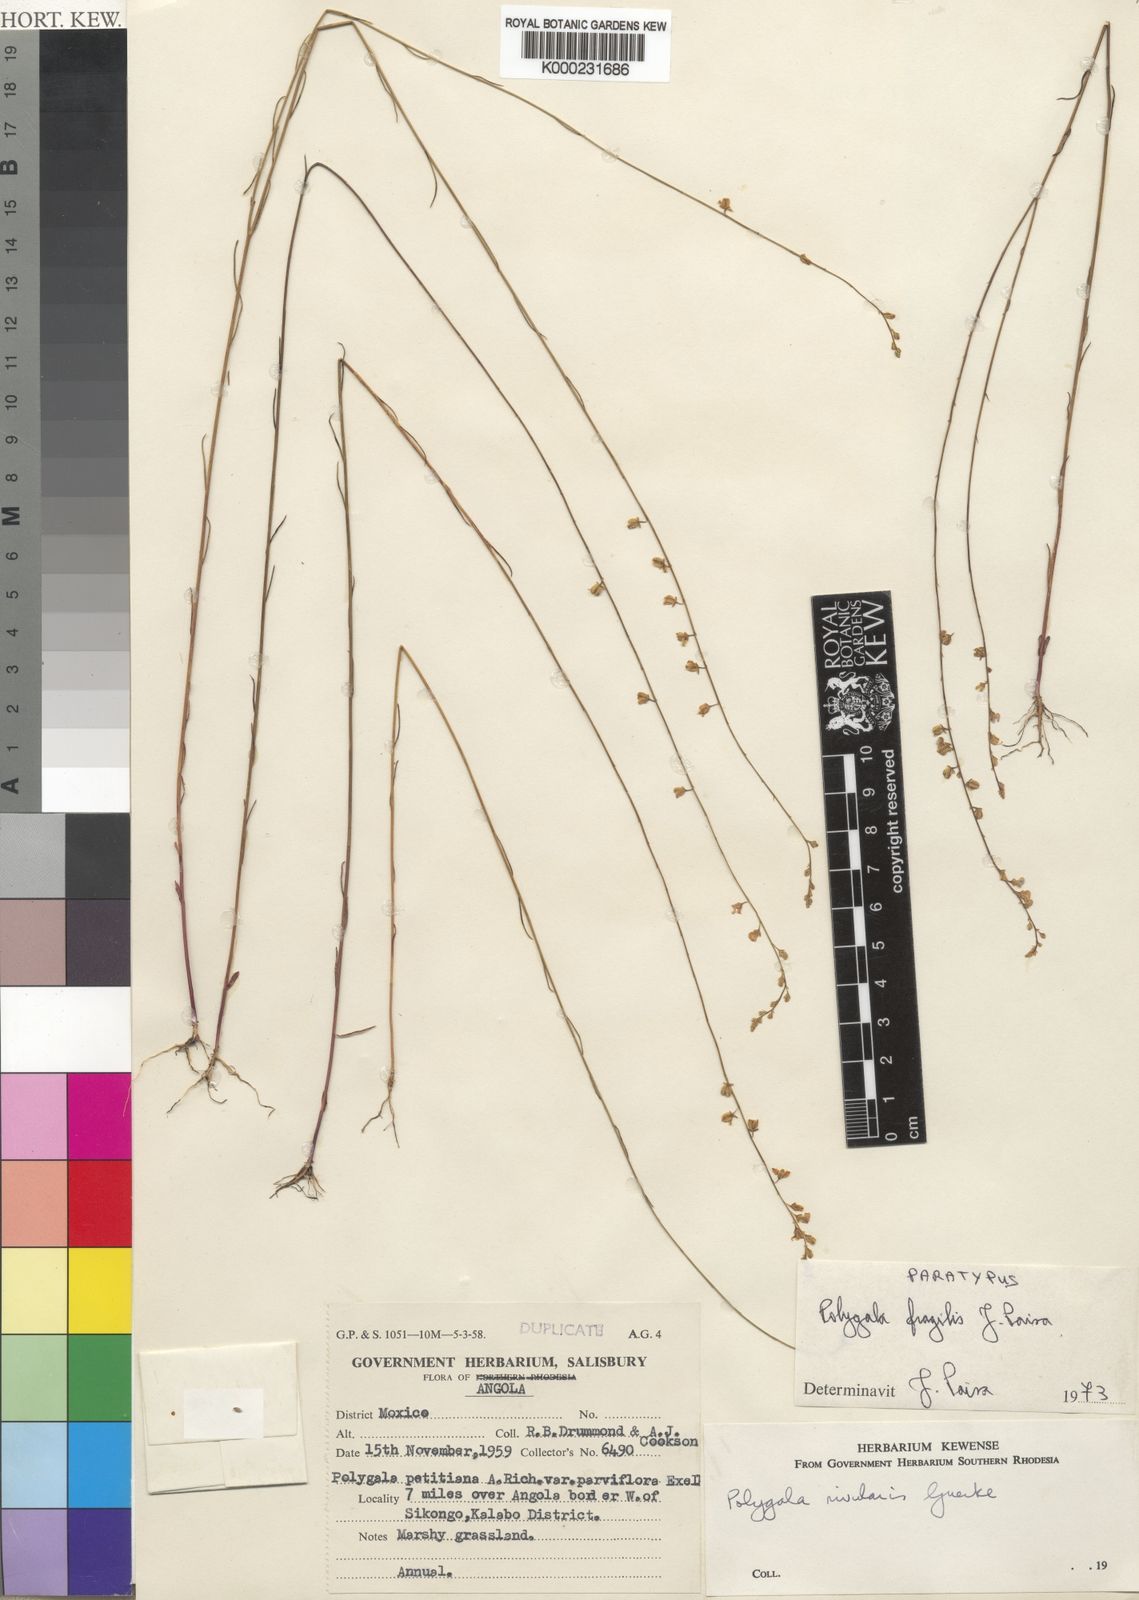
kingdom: Plantae
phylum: Tracheophyta
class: Magnoliopsida
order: Fabales
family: Polygalaceae
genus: Polygala
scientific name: Polygala fragilis
